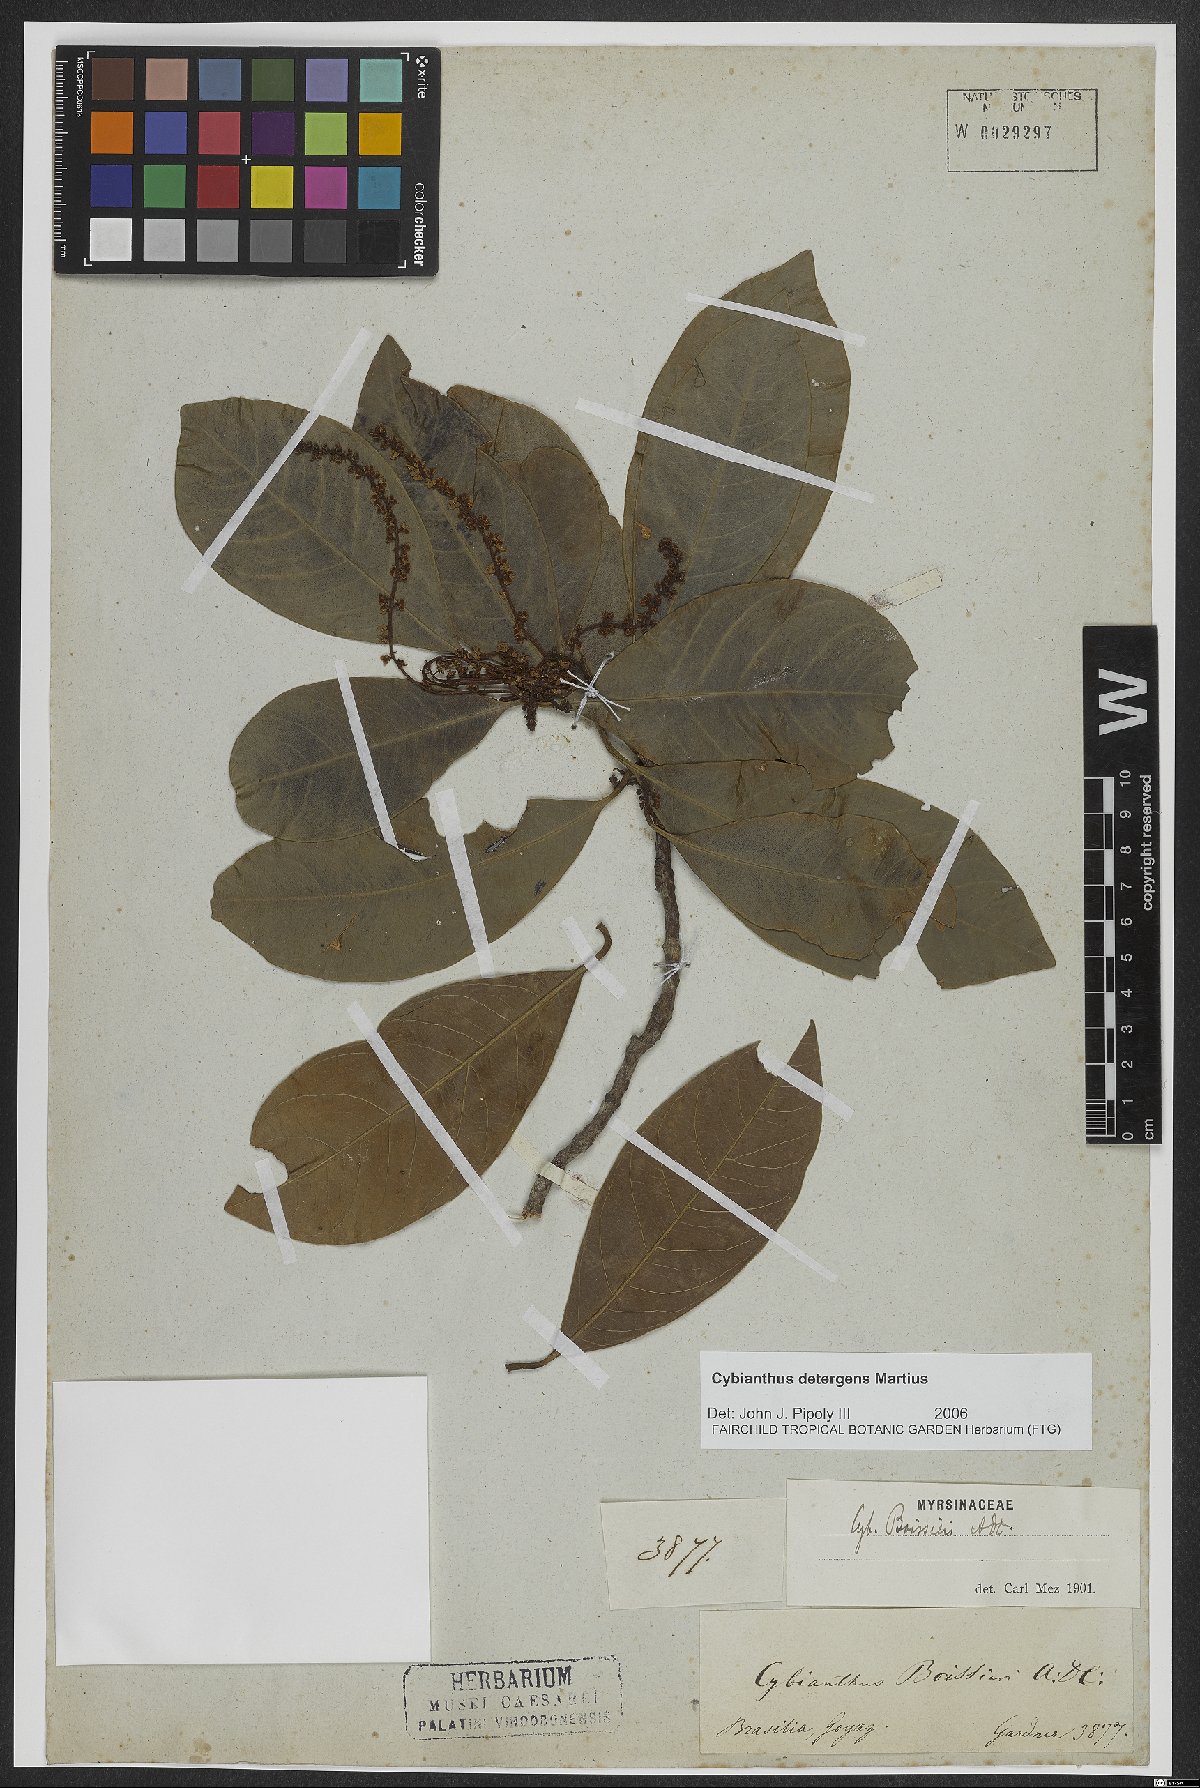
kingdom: Plantae
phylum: Tracheophyta
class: Magnoliopsida
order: Ericales
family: Primulaceae
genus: Cybianthus
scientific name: Cybianthus detergens
